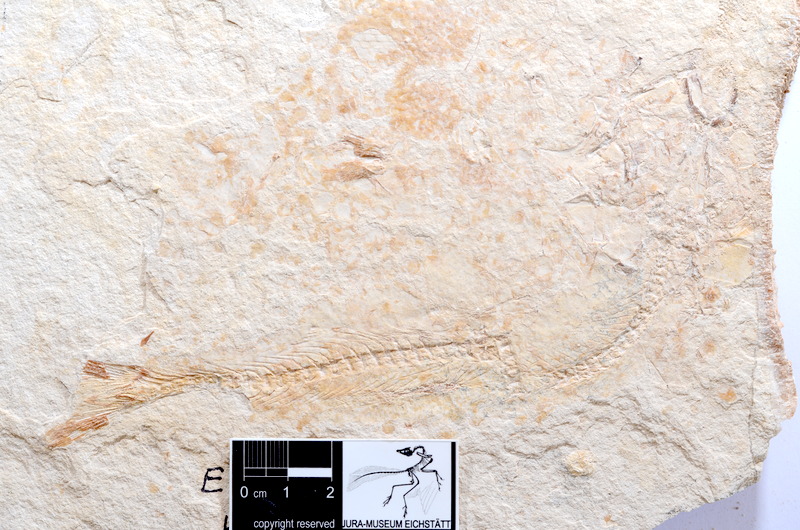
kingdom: Animalia
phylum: Chordata
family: Ascalaboidae
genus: Tharsis
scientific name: Tharsis dubius
